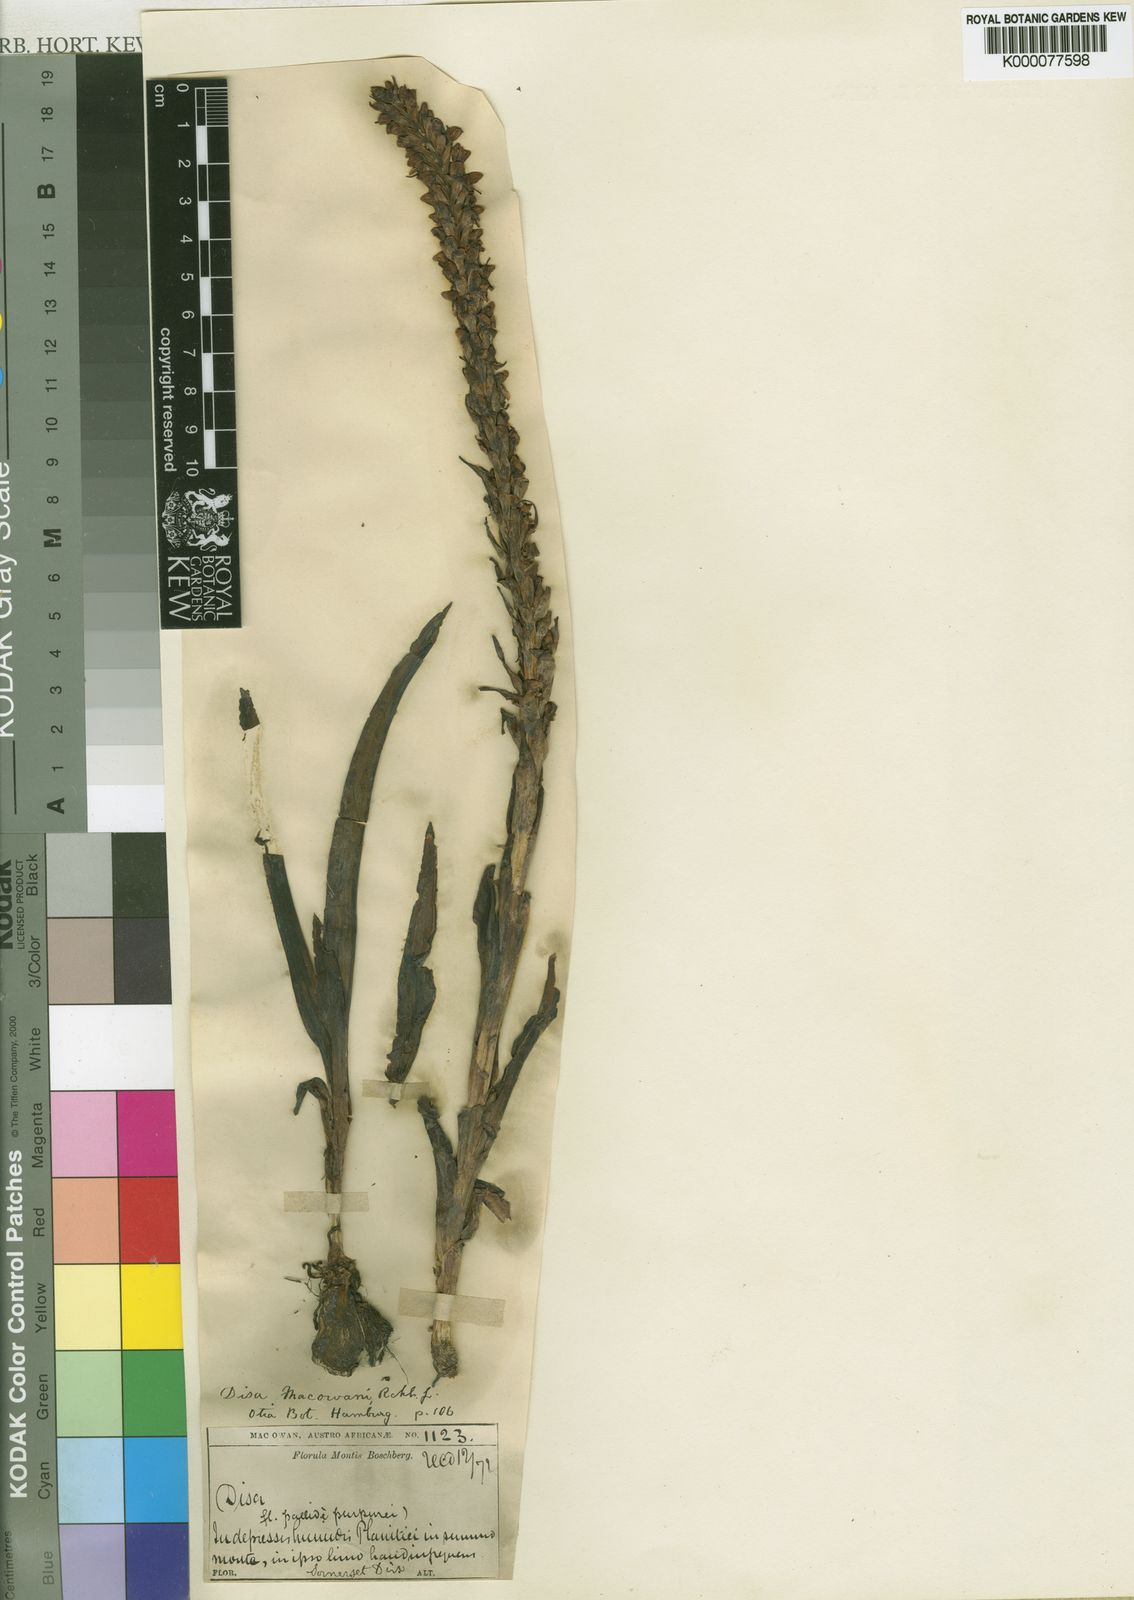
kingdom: Plantae
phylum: Tracheophyta
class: Liliopsida
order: Asparagales
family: Orchidaceae
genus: Disa
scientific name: Disa
